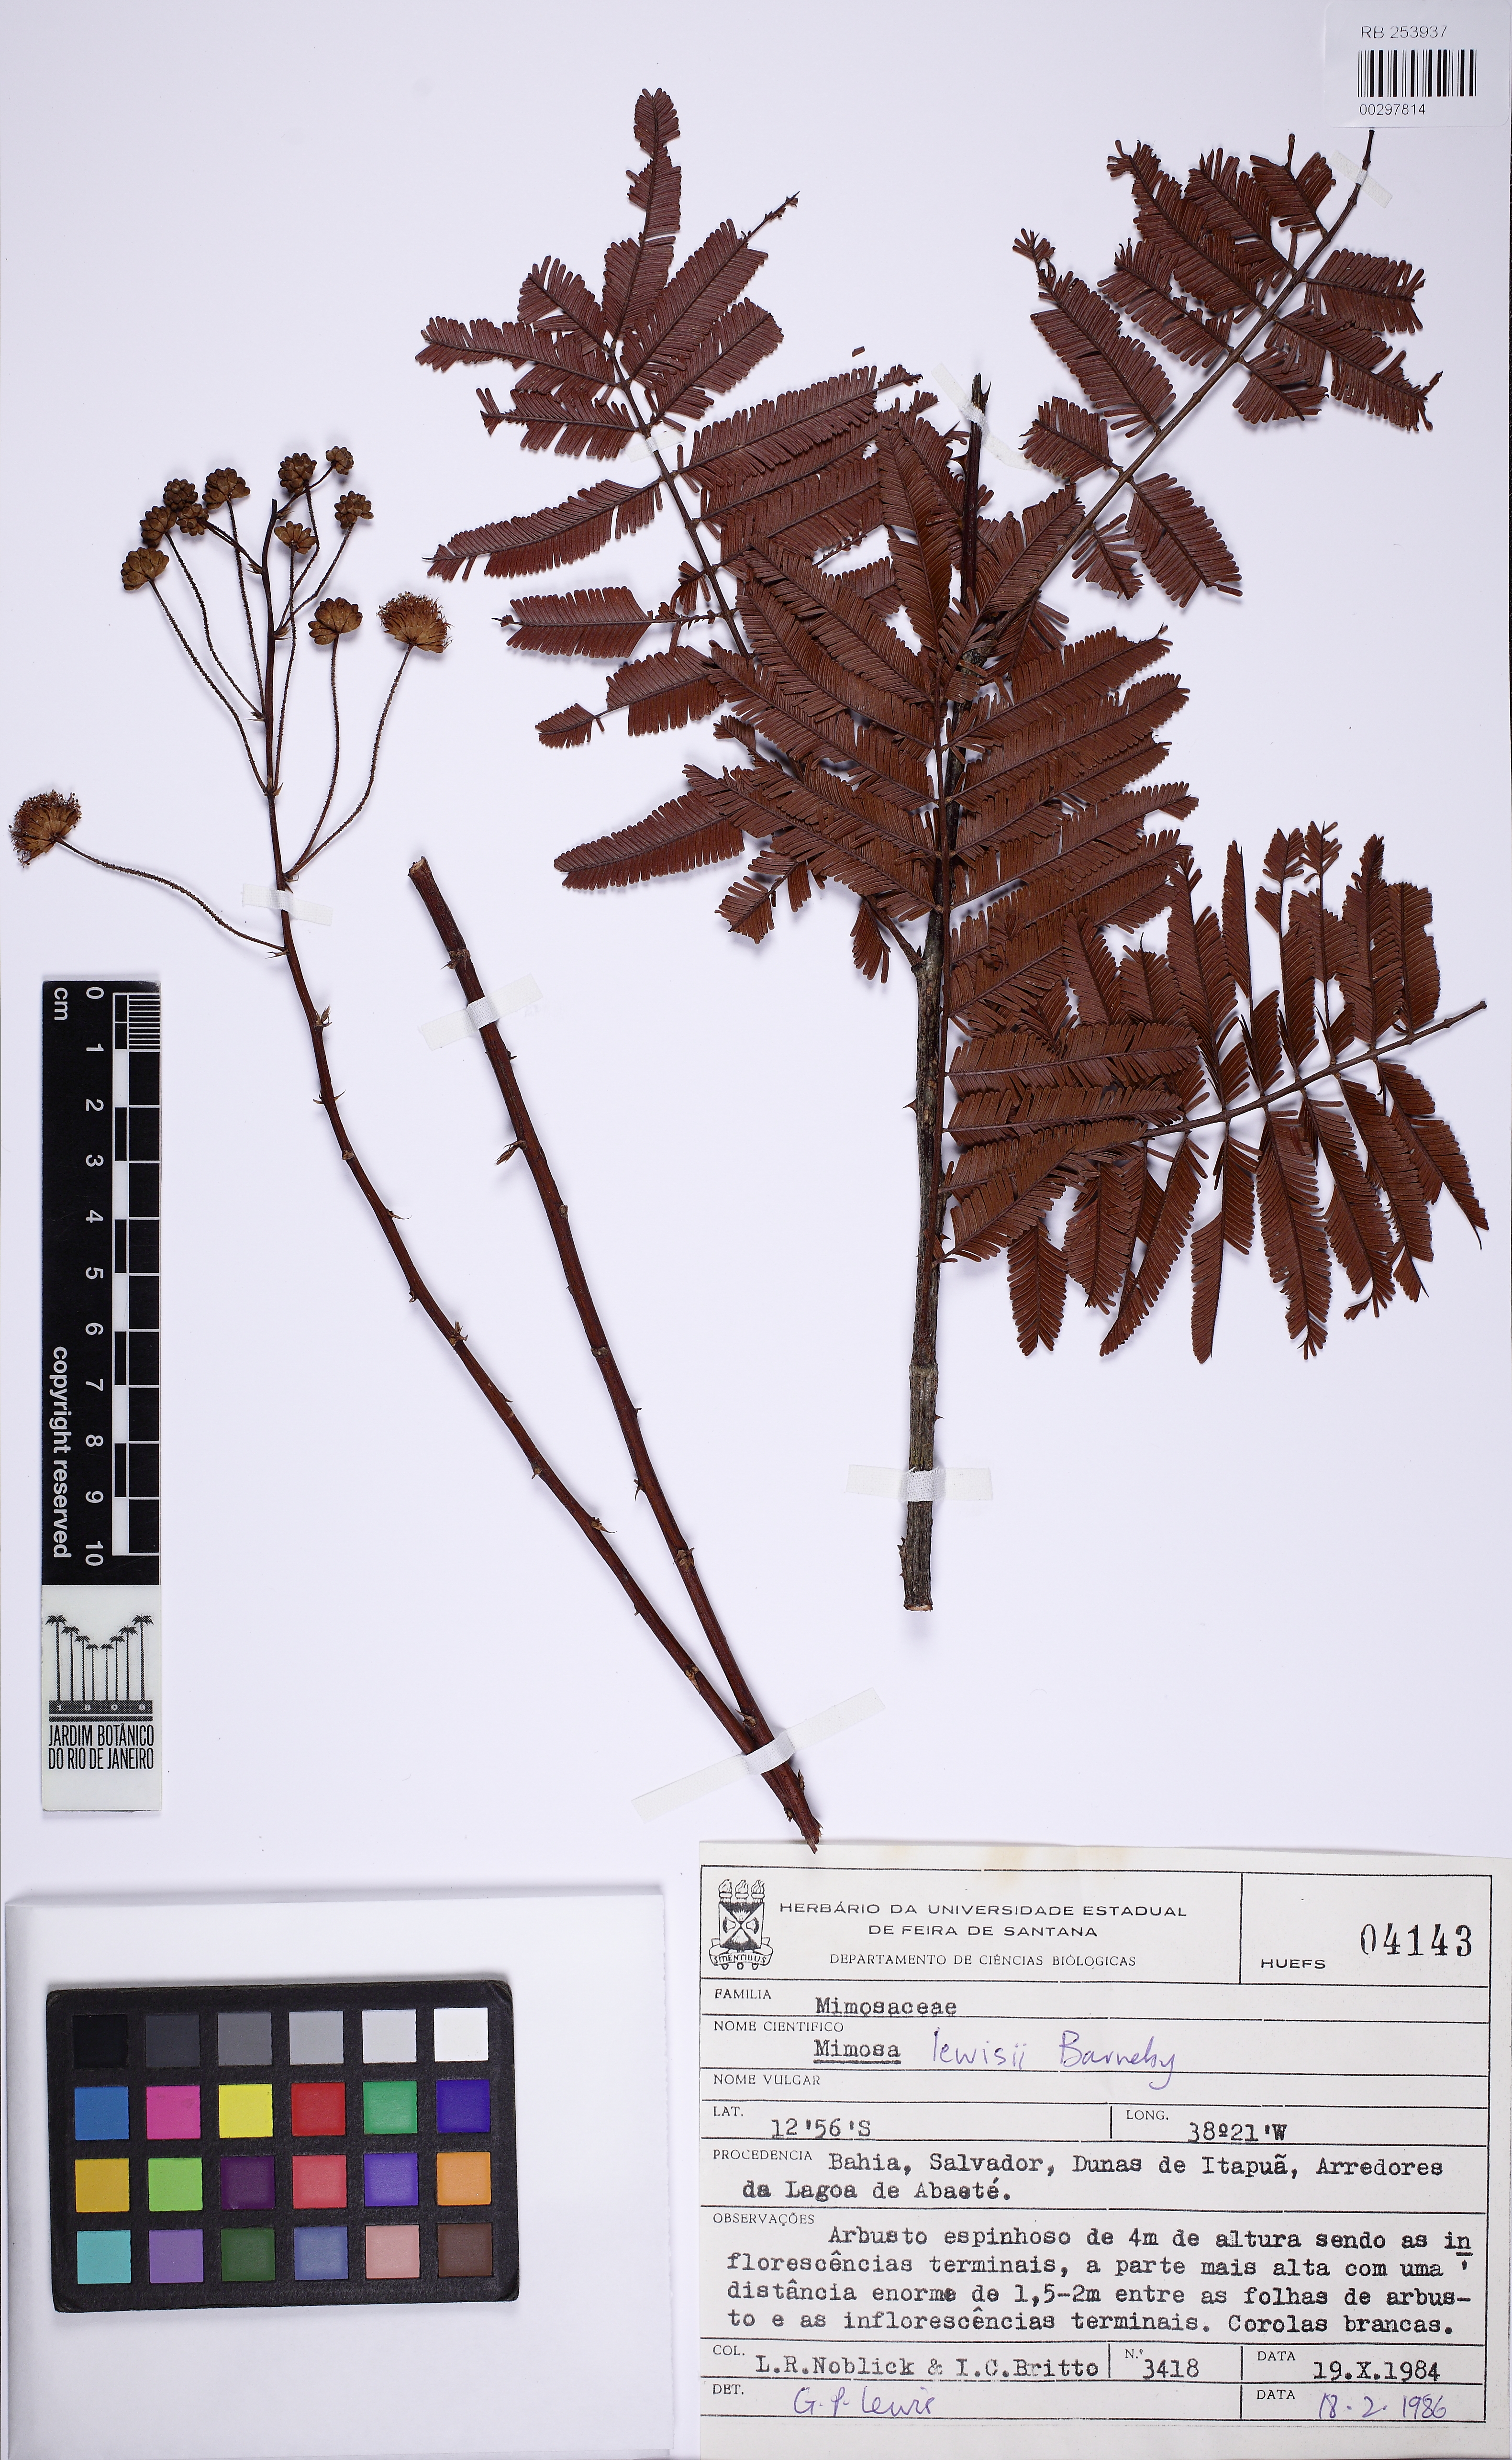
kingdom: Plantae
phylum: Tracheophyta
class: Magnoliopsida
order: Fabales
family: Fabaceae
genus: Mimosa
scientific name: Mimosa lewisii
